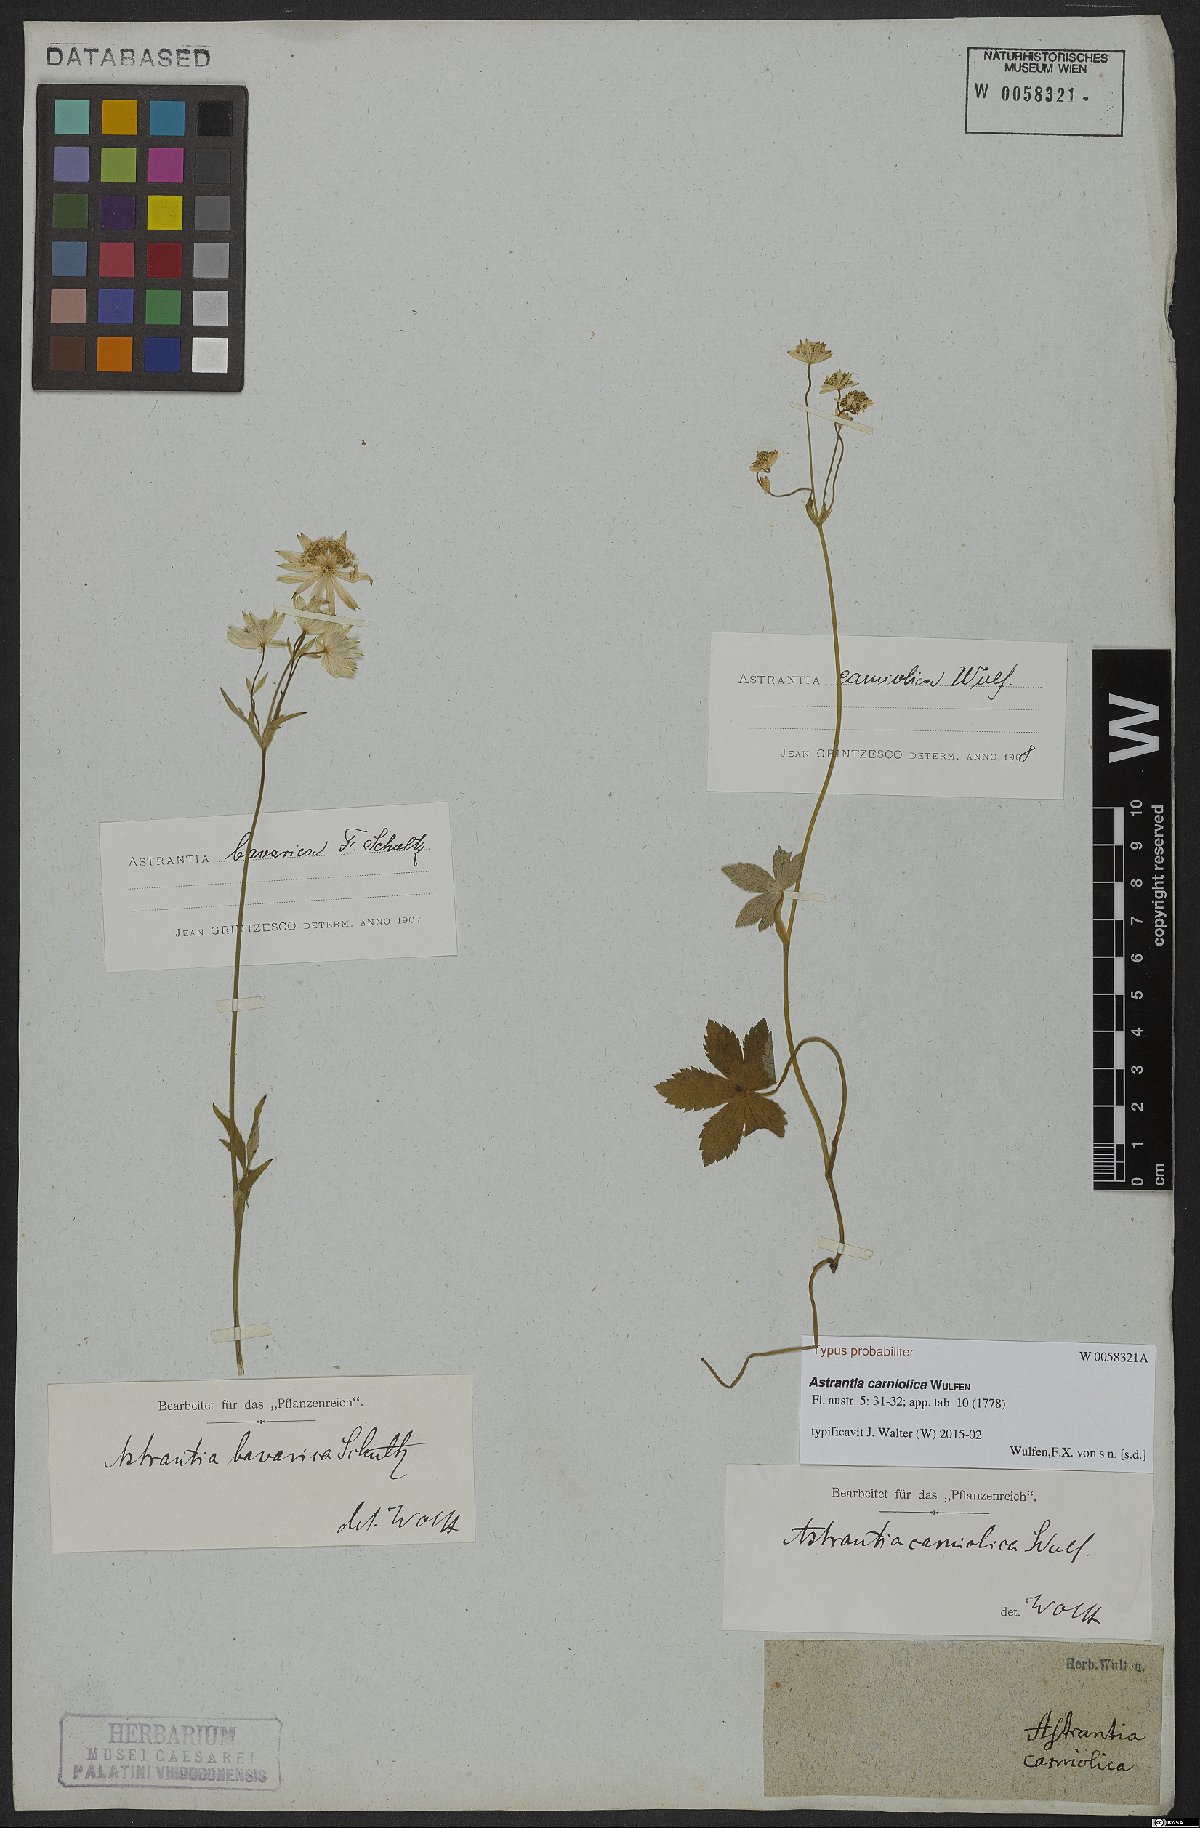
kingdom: Plantae
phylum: Tracheophyta
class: Magnoliopsida
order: Apiales
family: Apiaceae
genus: Astrantia
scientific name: Astrantia bavarica
